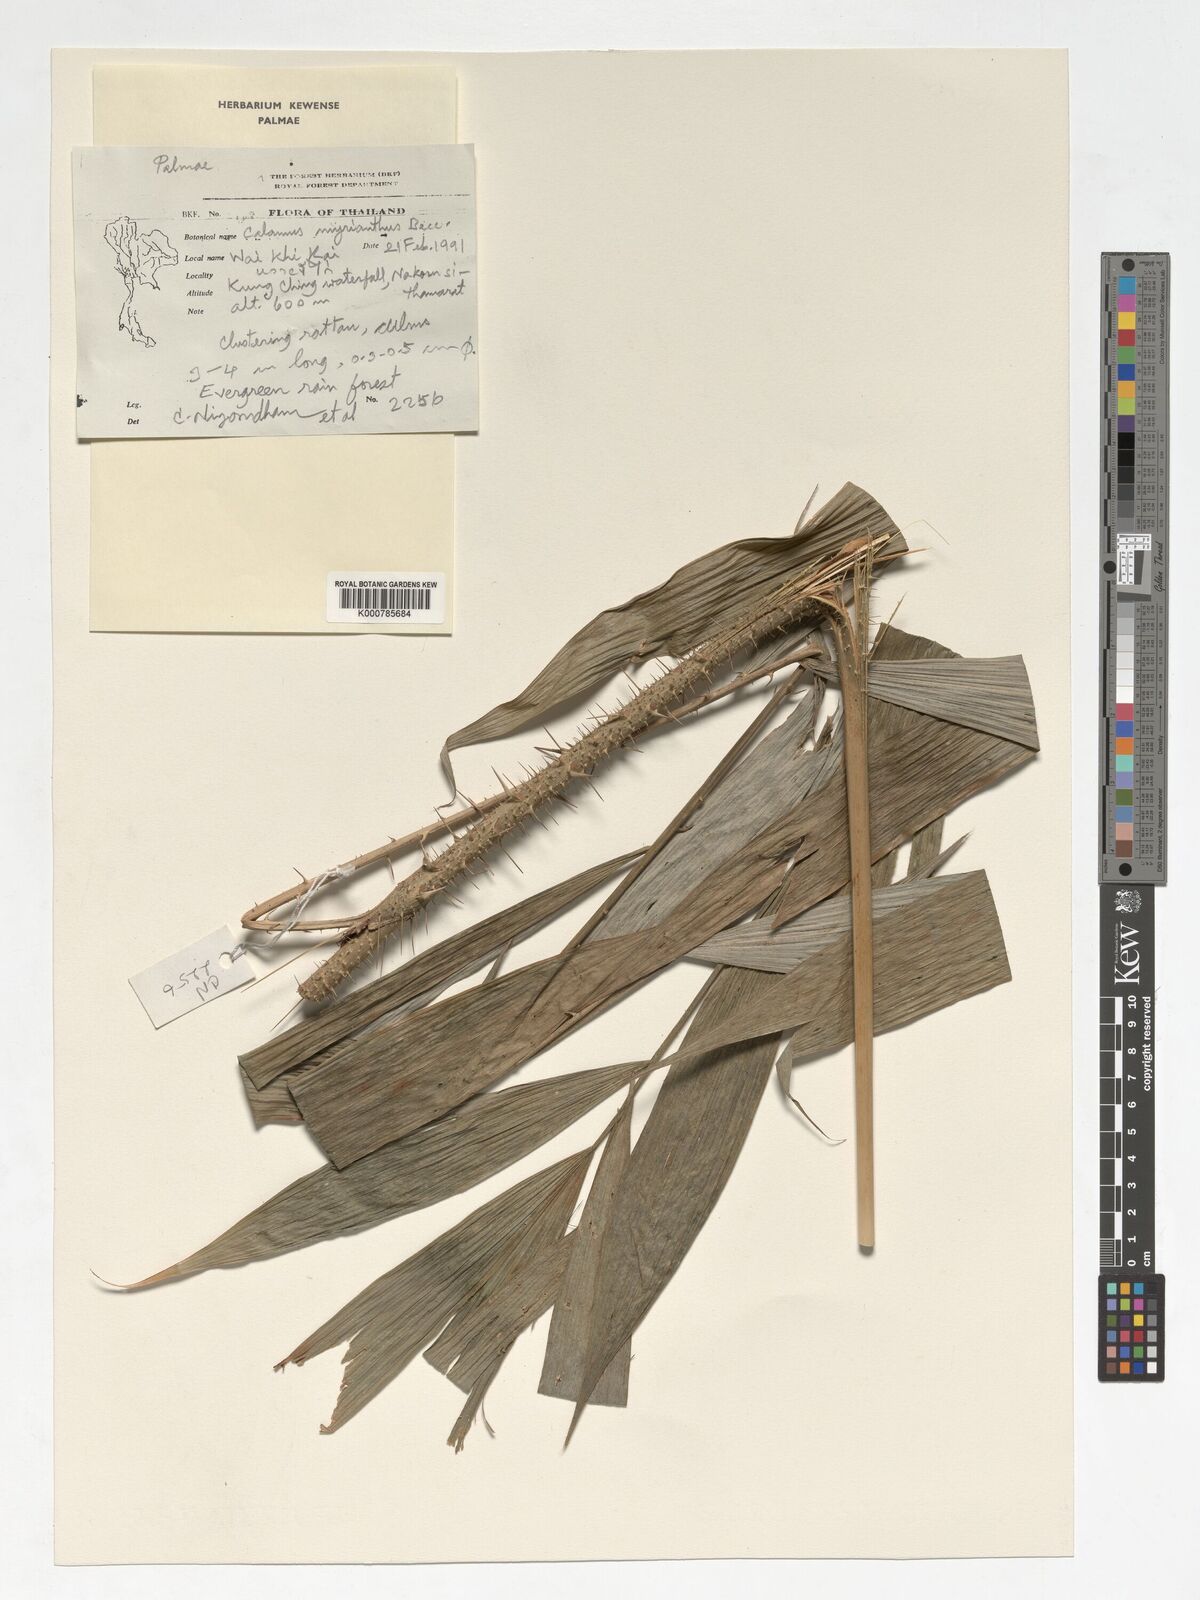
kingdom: Plantae
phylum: Tracheophyta
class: Liliopsida
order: Arecales
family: Arecaceae
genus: Calamus
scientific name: Calamus myrianthus
